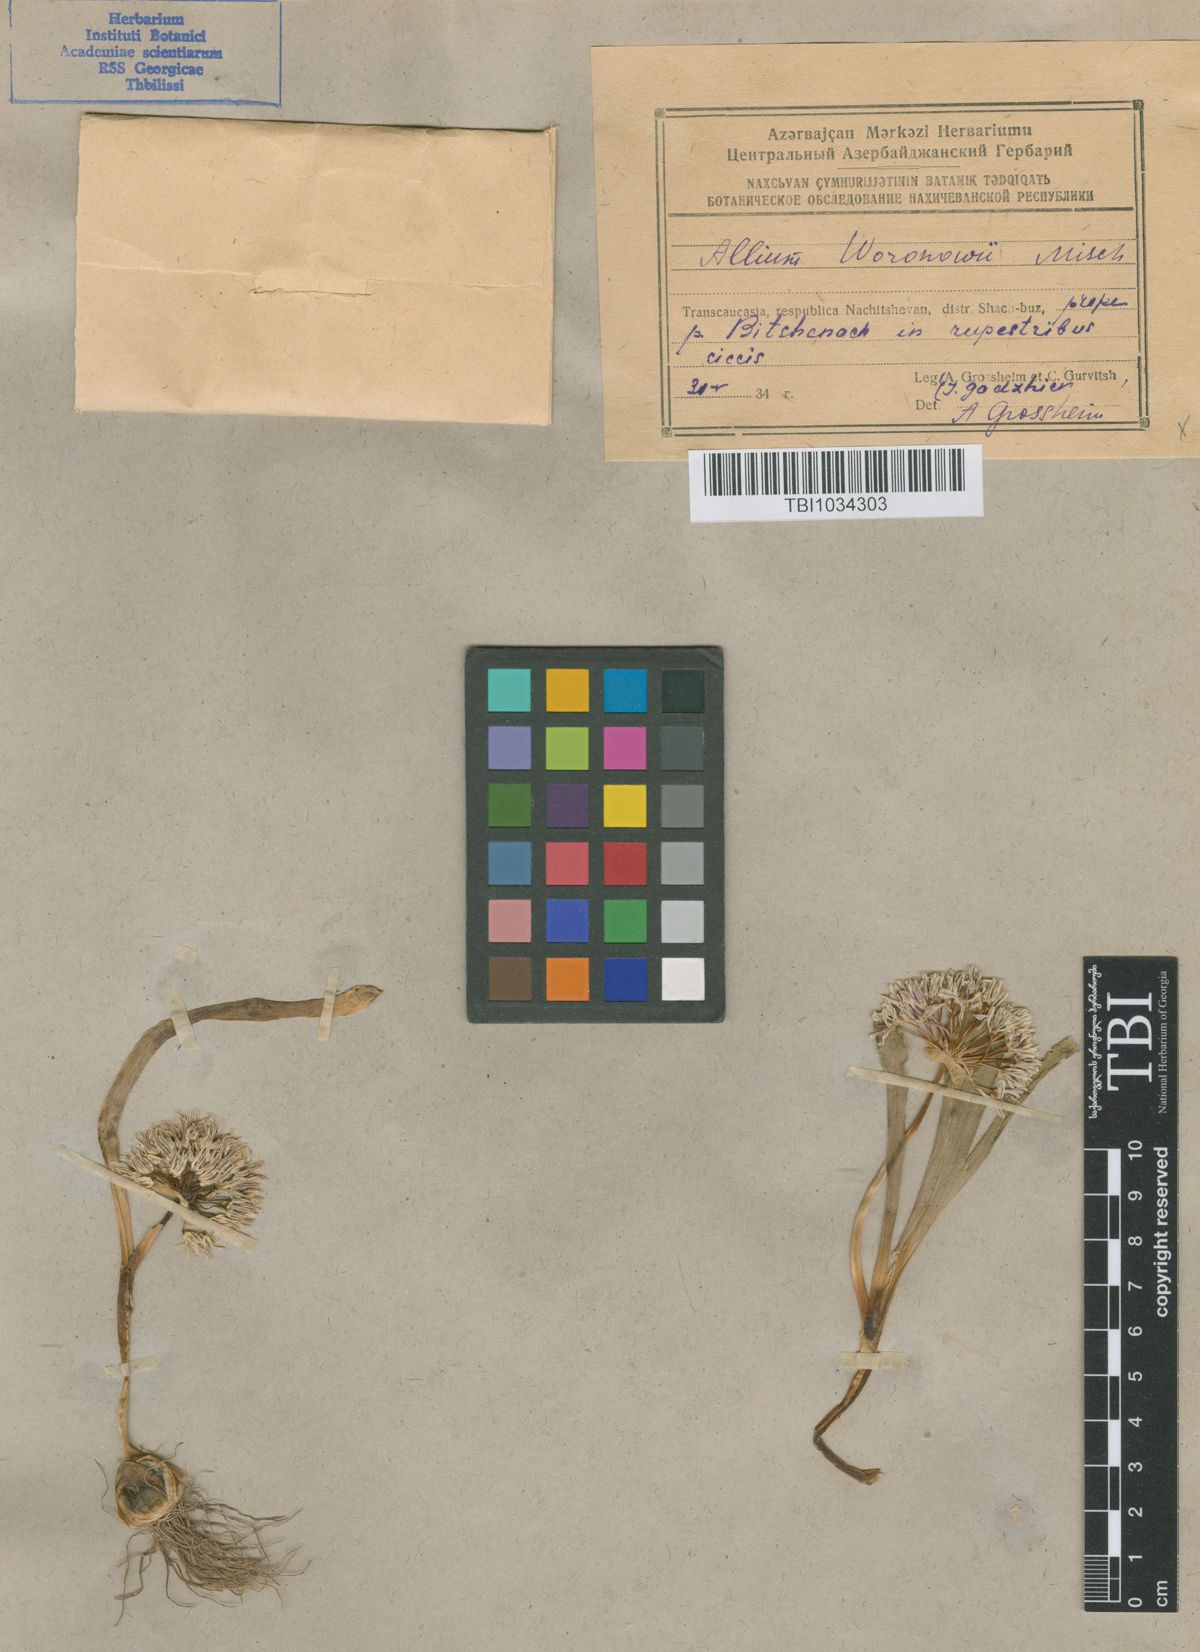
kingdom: Plantae
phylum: Tracheophyta
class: Liliopsida
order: Asparagales
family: Amaryllidaceae
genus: Allium
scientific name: Allium woronowii
